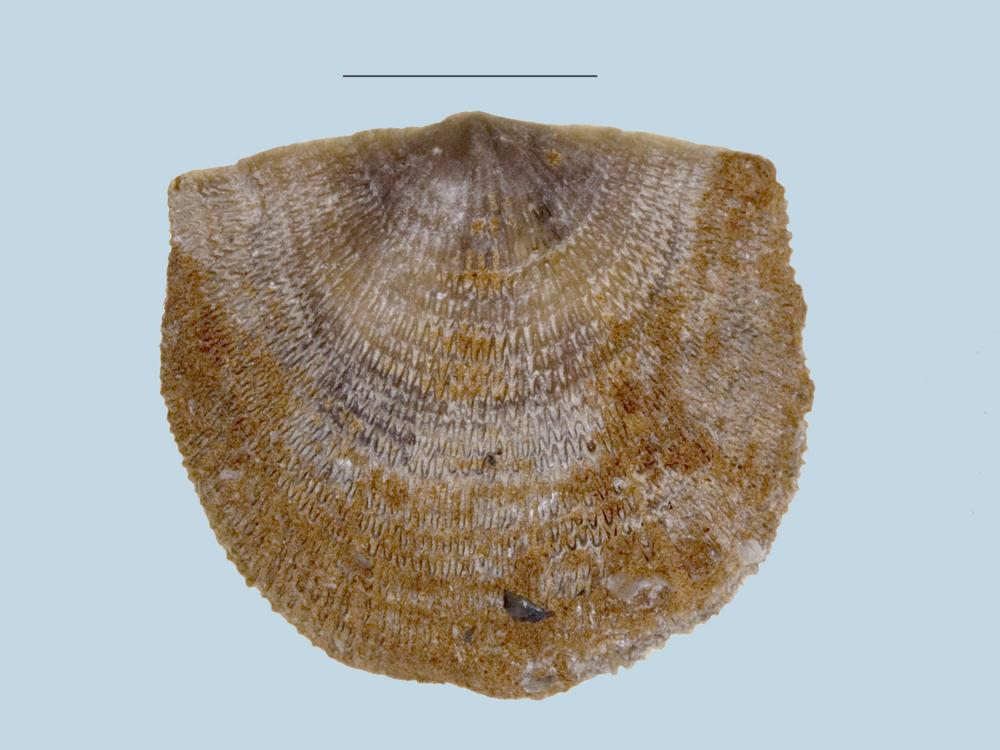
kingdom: Animalia
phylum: Brachiopoda
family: Gonambonitidae
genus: Gonambonites
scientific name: Gonambonites plana
